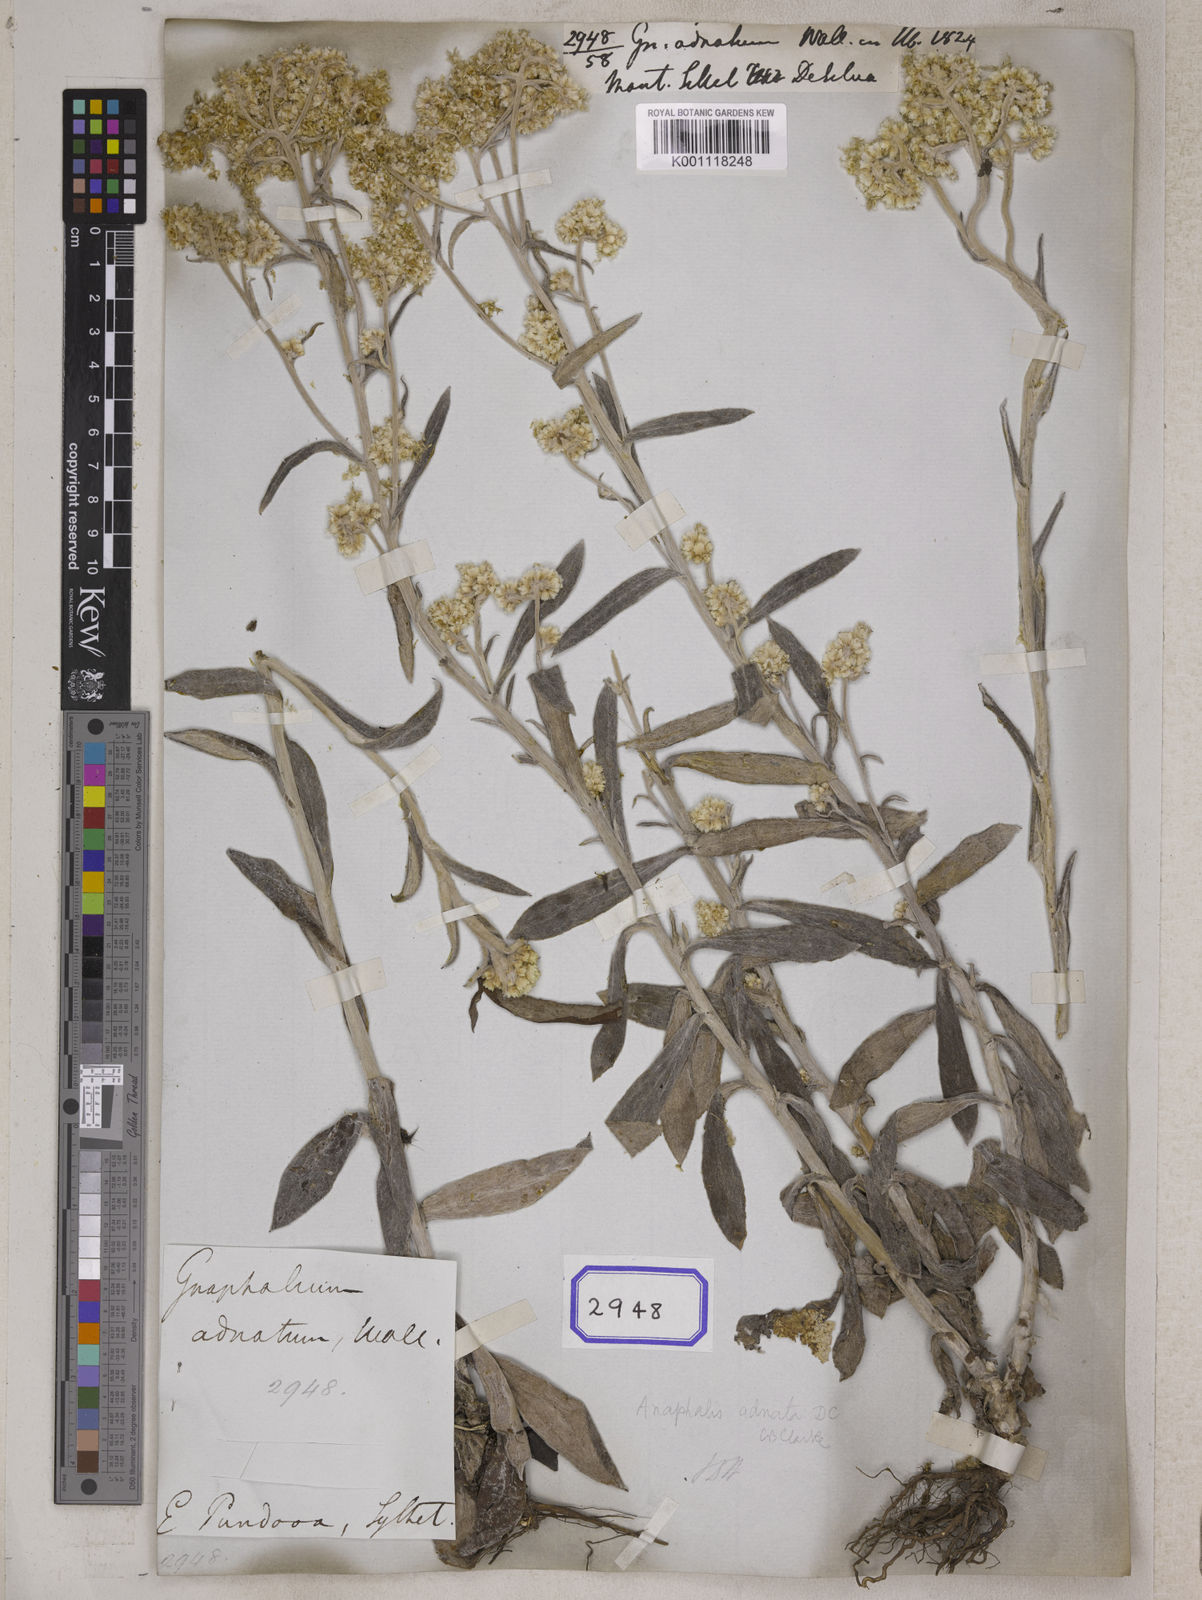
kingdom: Plantae
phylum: Tracheophyta
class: Magnoliopsida
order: Asterales
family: Asteraceae
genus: Gnaphalium
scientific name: Gnaphalium
